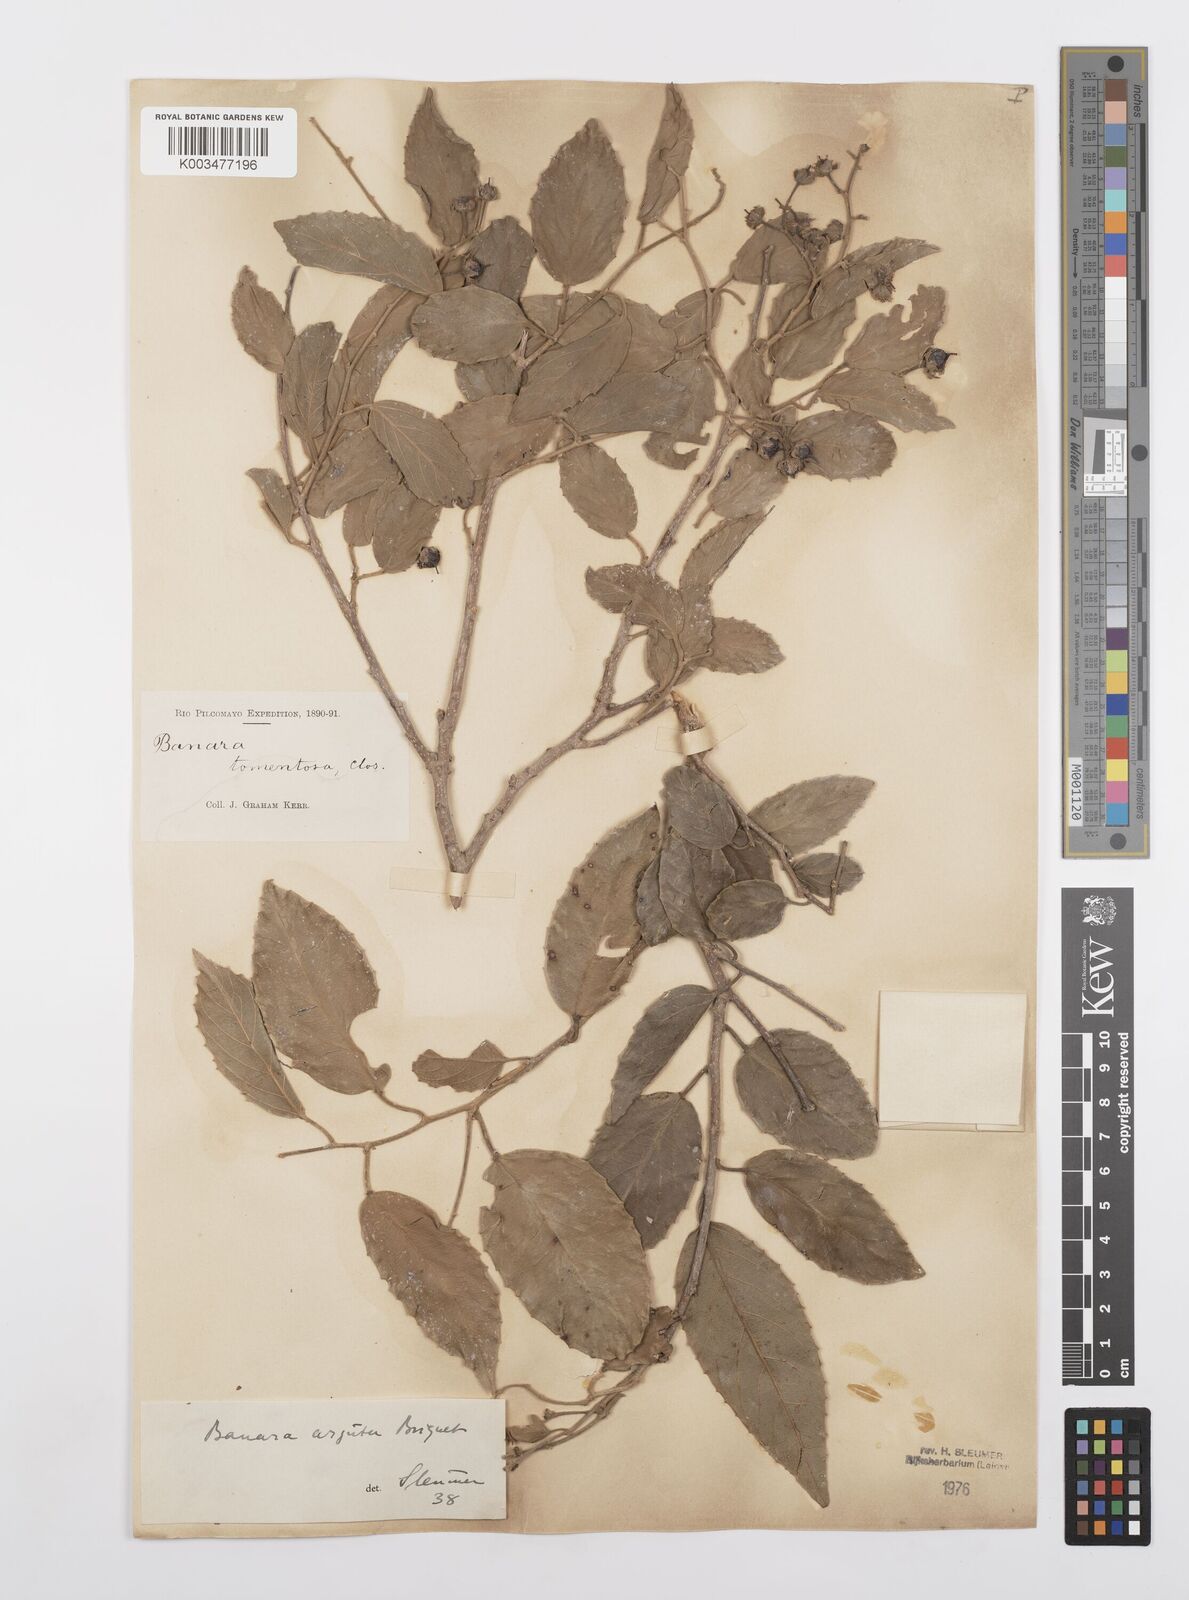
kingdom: Plantae
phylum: Tracheophyta
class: Magnoliopsida
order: Malpighiales
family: Salicaceae
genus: Banara
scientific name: Banara arguta
